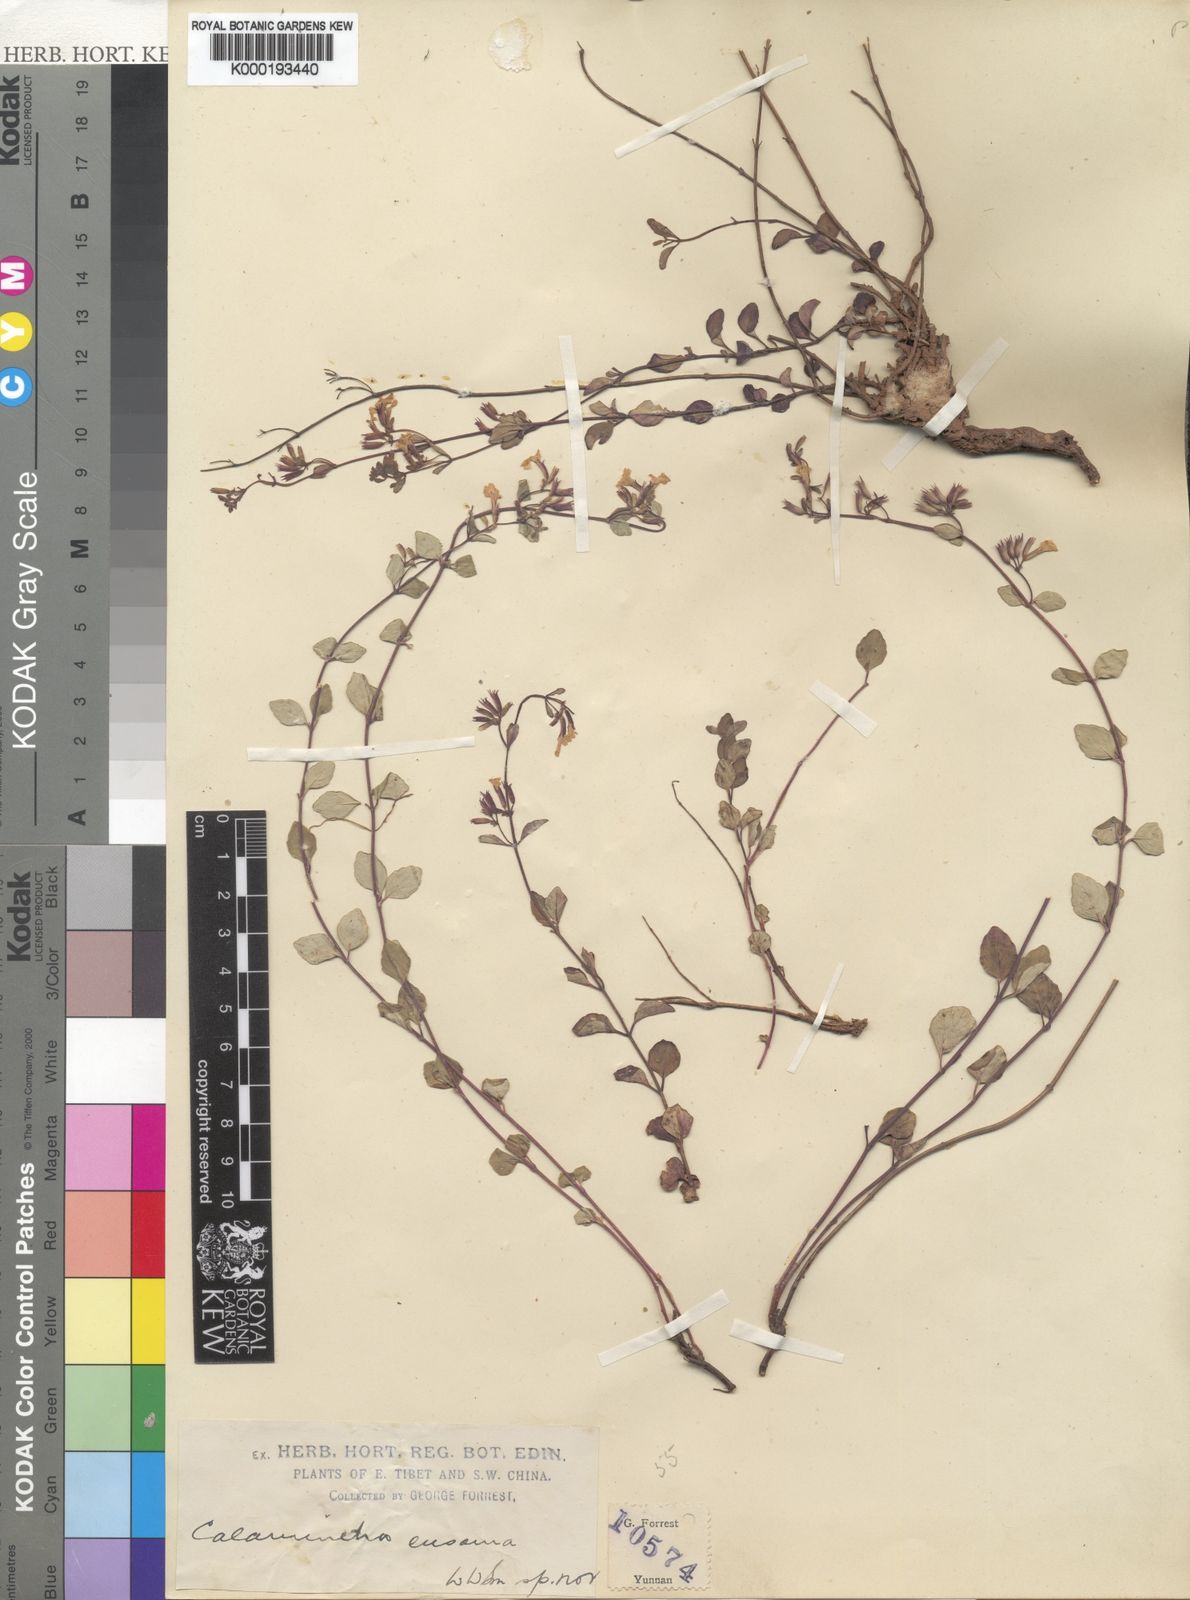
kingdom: Plantae
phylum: Tracheophyta
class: Magnoliopsida
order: Lamiales
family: Lamiaceae
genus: Clinopodium
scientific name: Clinopodium euosmum
